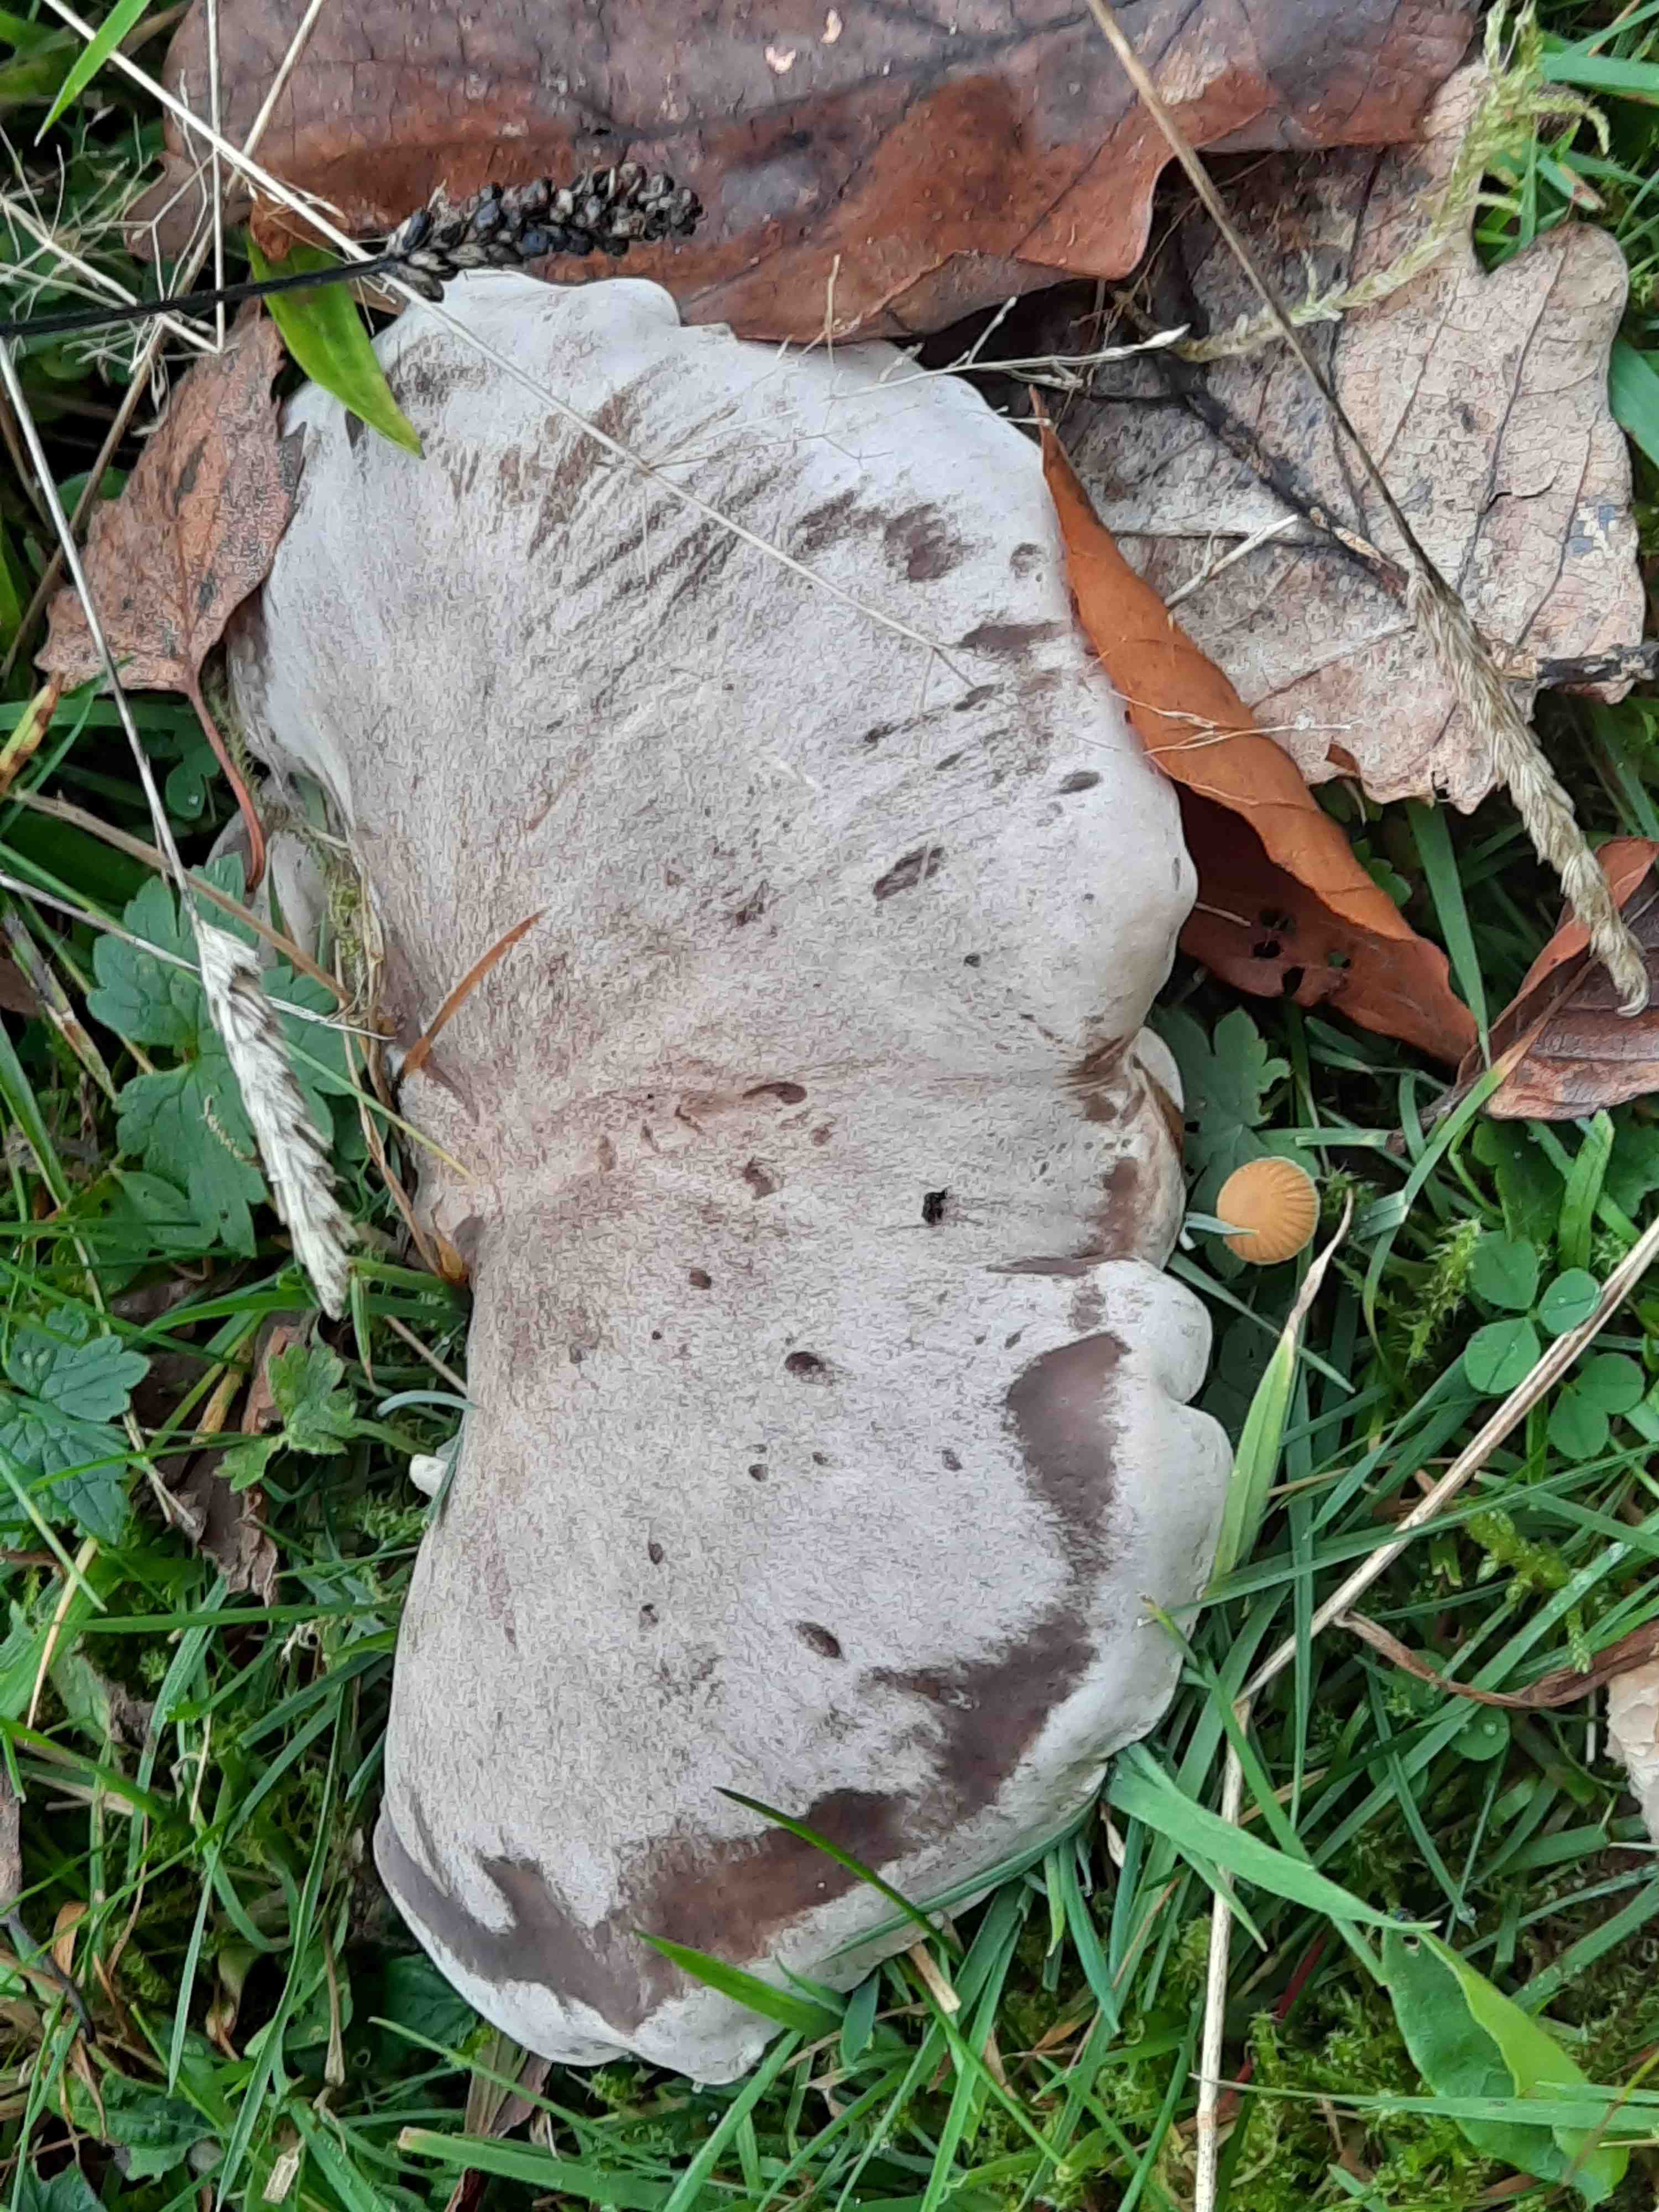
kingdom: Fungi
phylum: Basidiomycota
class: Agaricomycetes
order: Agaricales
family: Tricholomataceae
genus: Lepista
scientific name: Lepista panaeolus
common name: marmoreret hekseringshat
